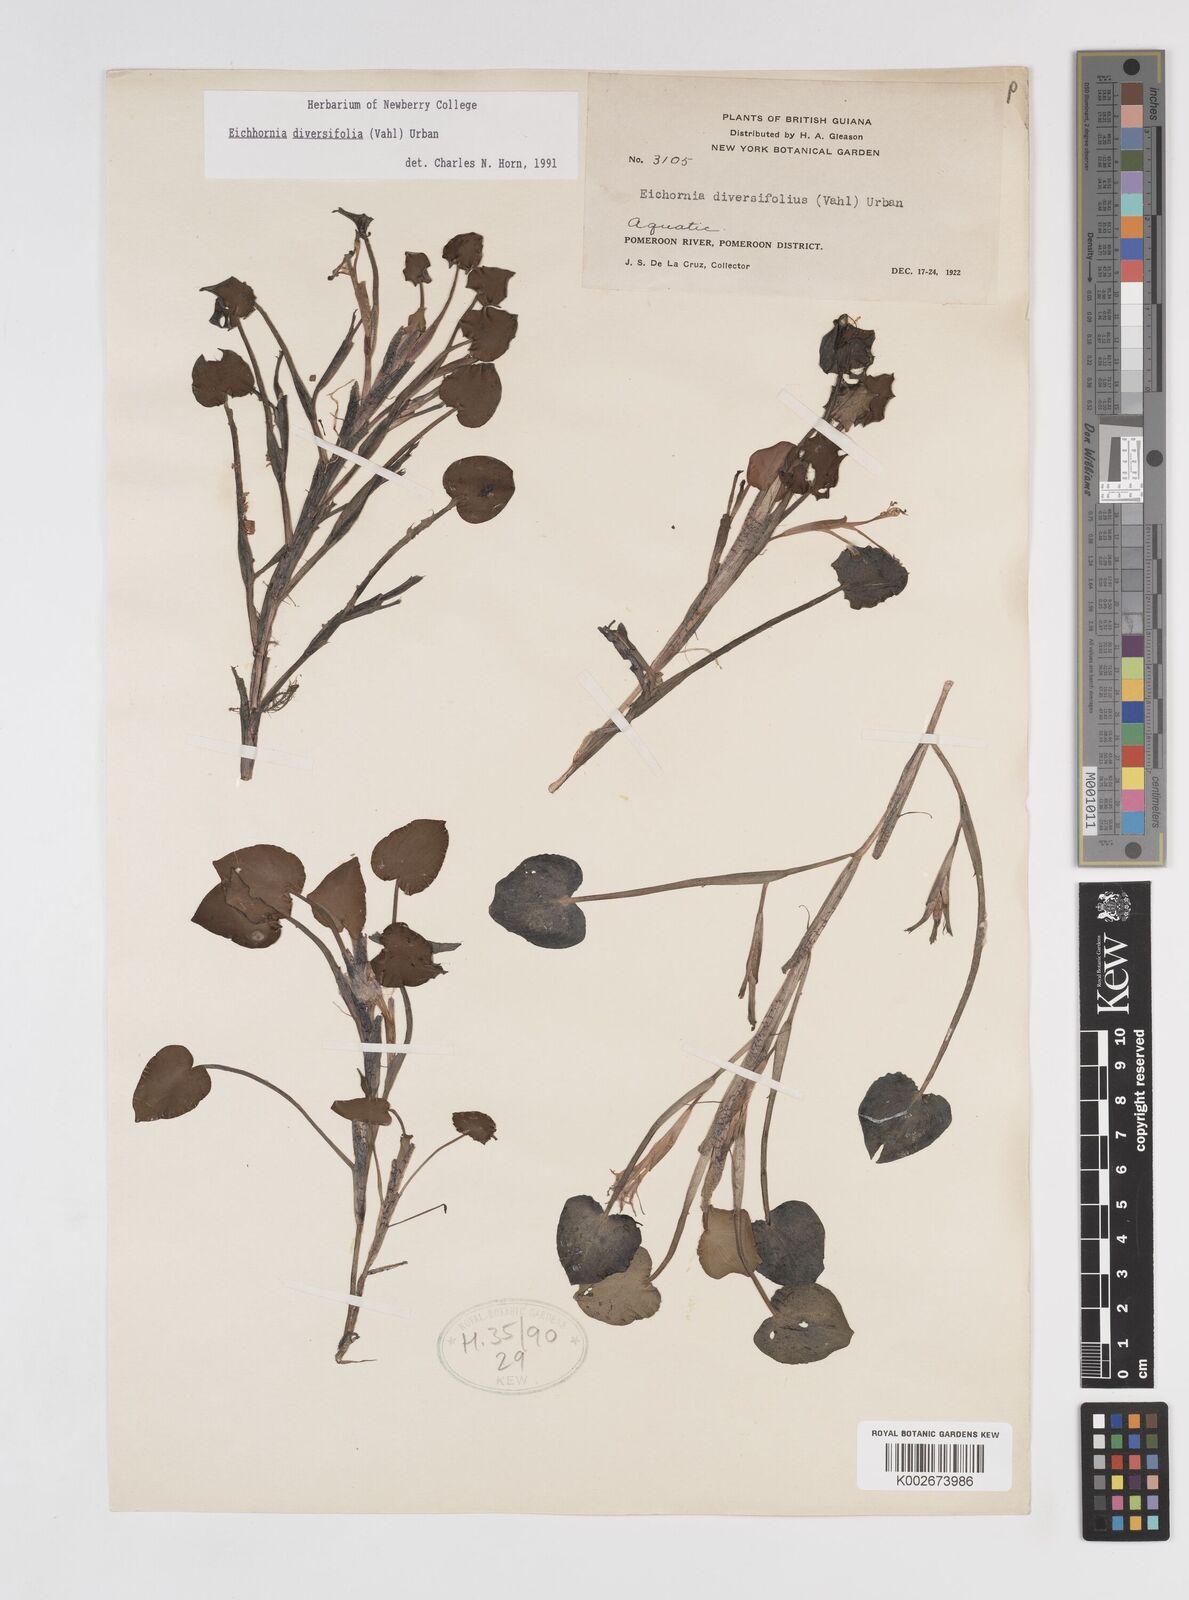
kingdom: Plantae
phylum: Tracheophyta
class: Liliopsida
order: Commelinales
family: Pontederiaceae
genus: Pontederia
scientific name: Pontederia diversifolia
